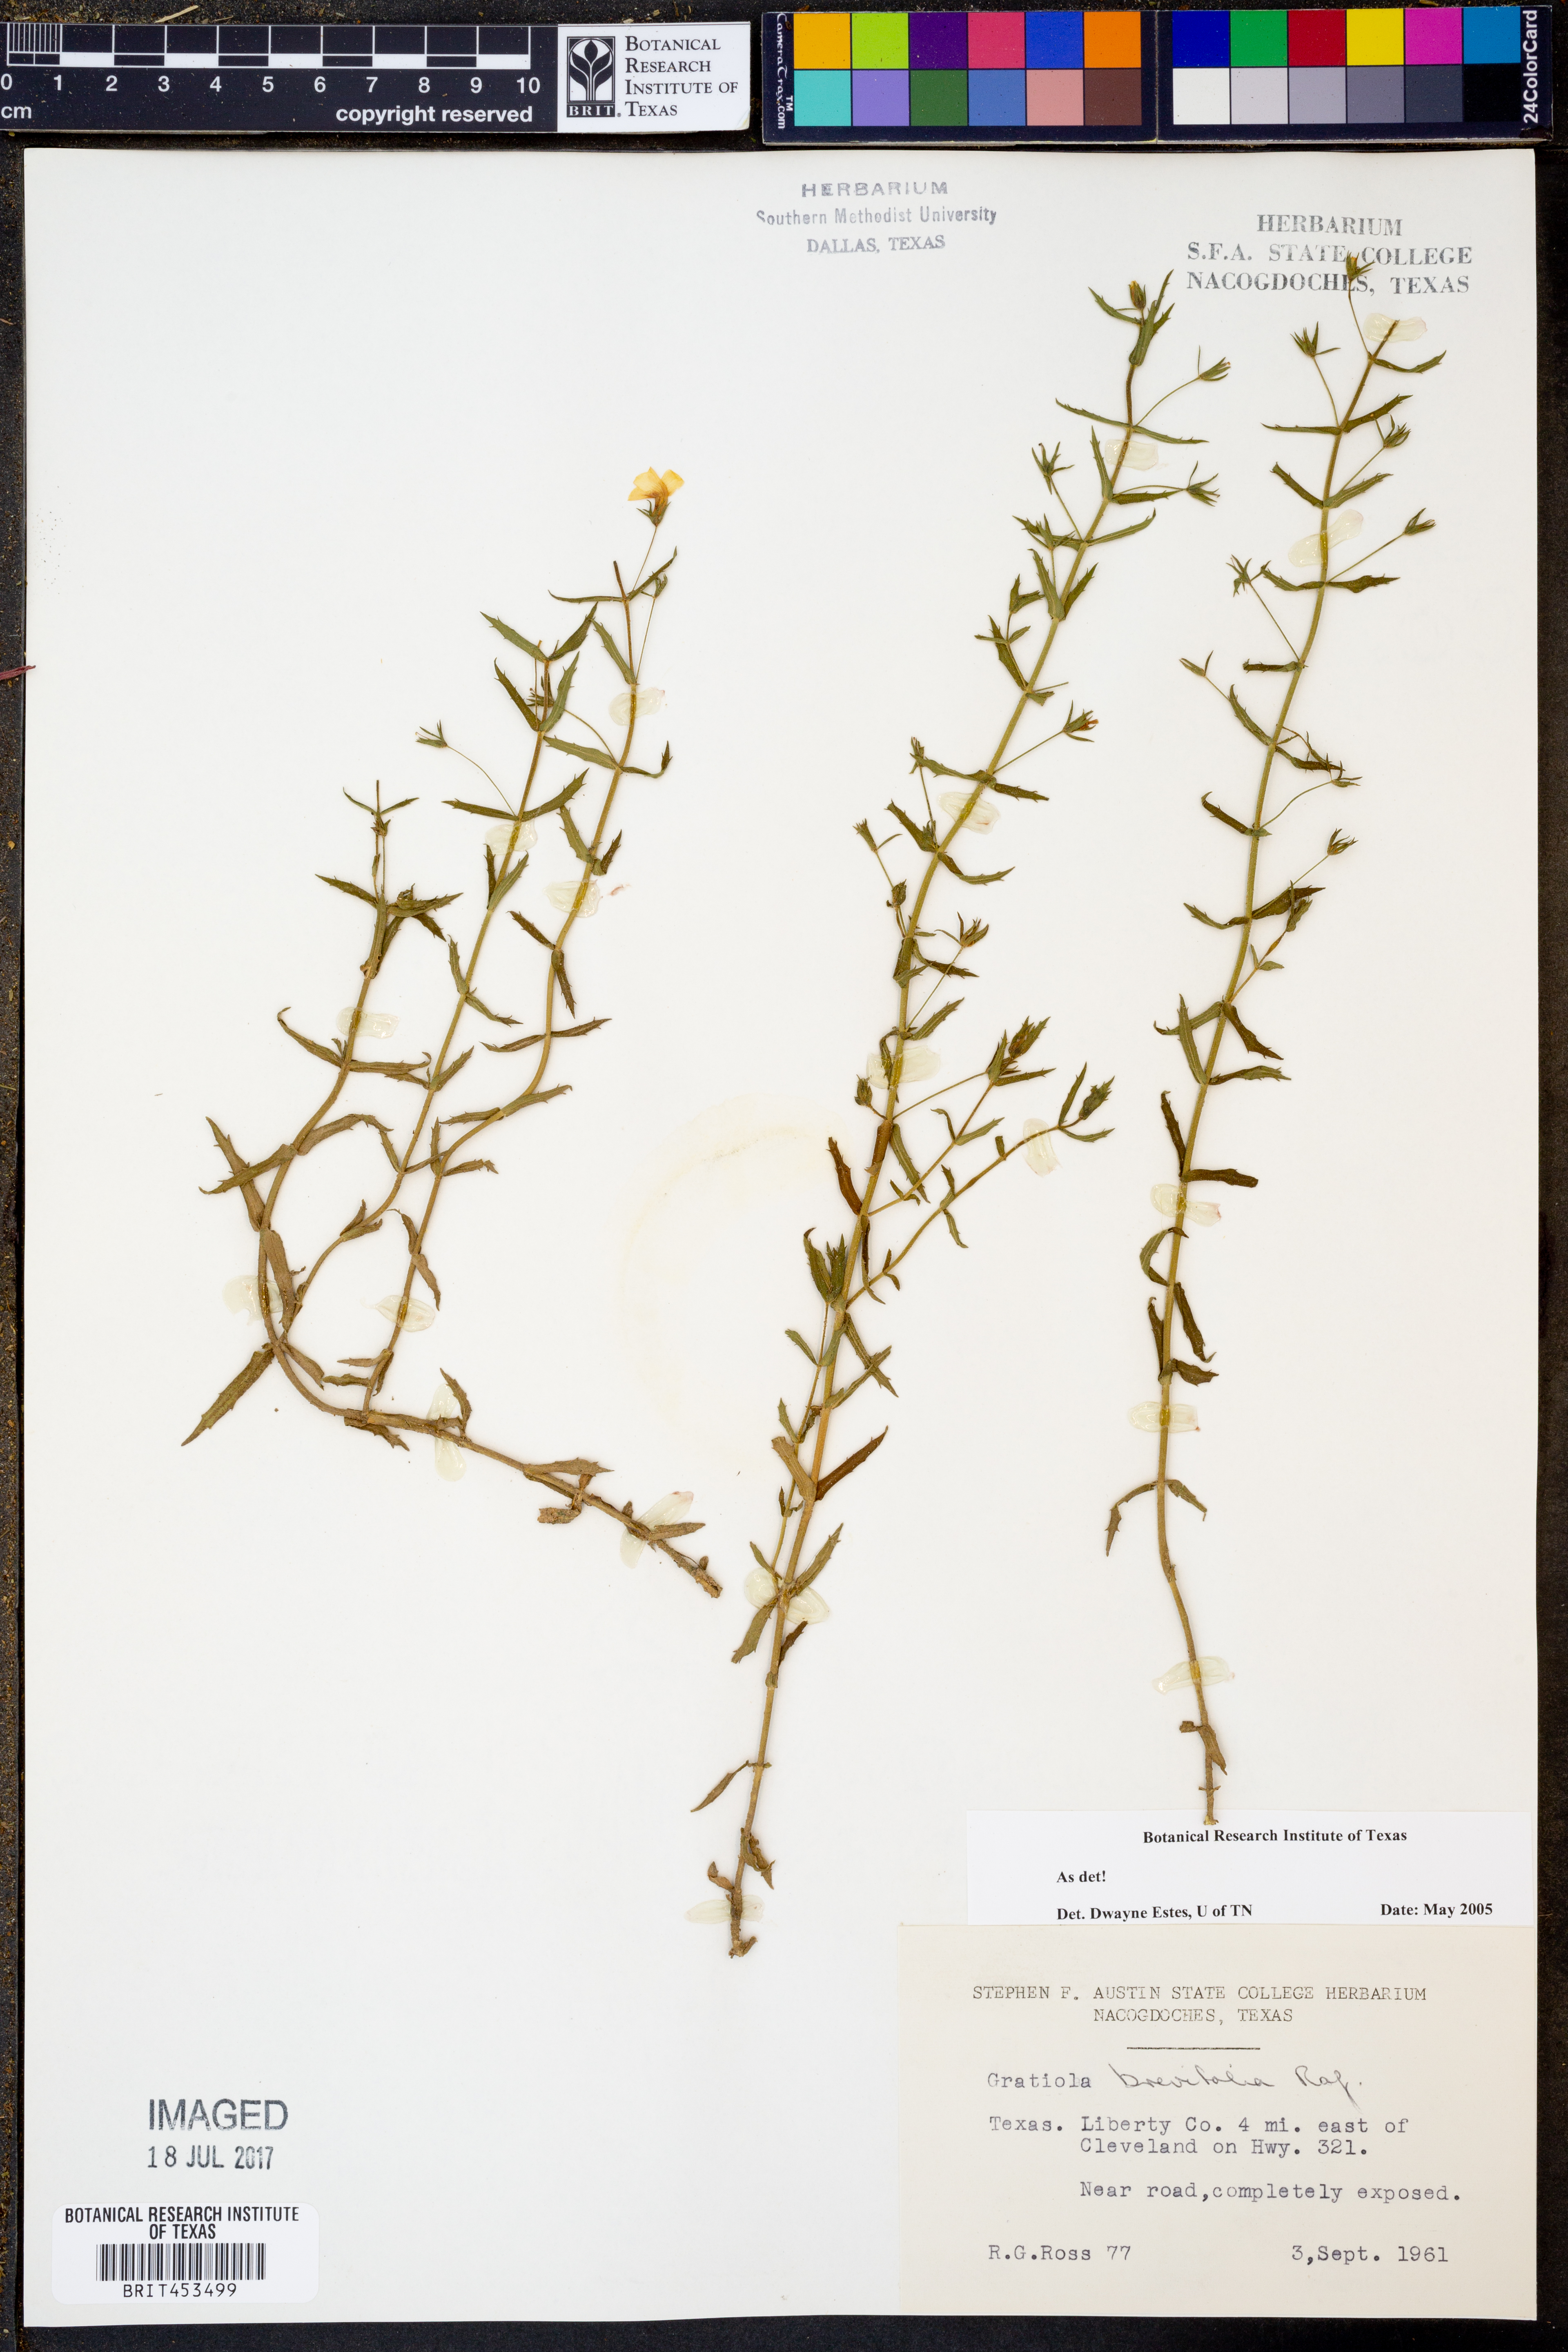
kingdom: Plantae
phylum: Tracheophyta
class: Magnoliopsida
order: Lamiales
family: Plantaginaceae
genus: Gratiola
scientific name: Gratiola brevifolia
